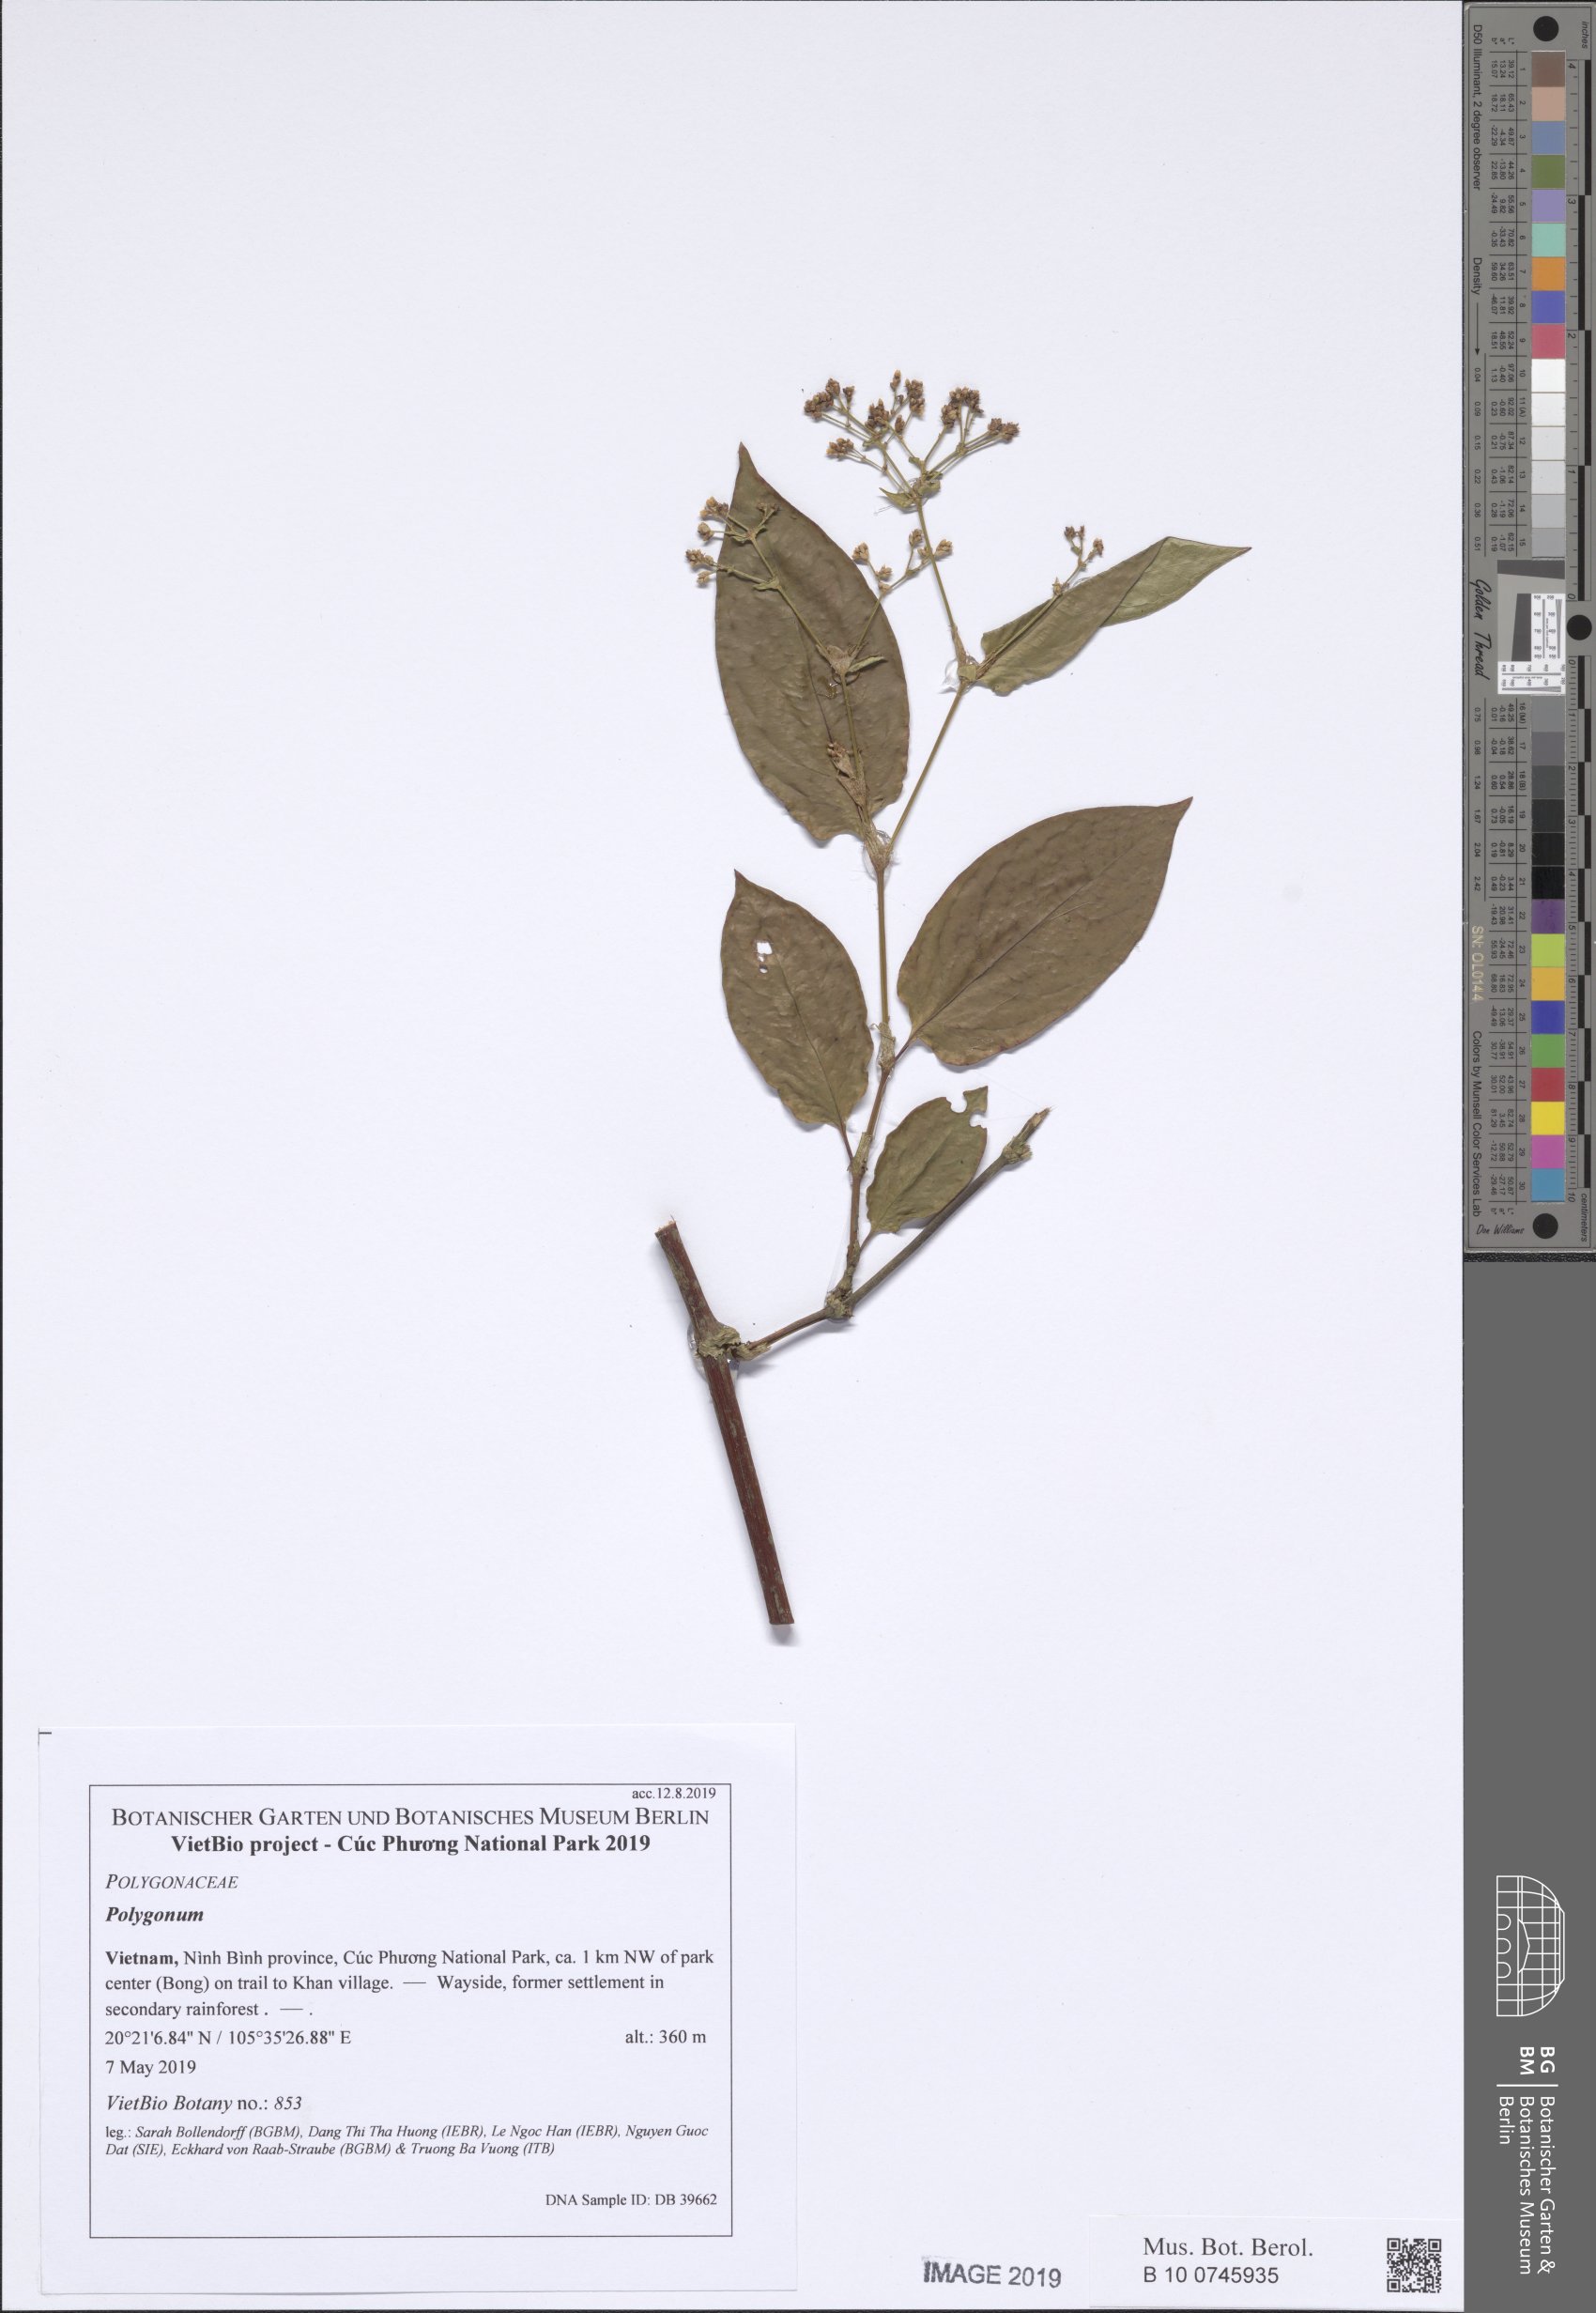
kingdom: Plantae
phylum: Tracheophyta
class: Magnoliopsida
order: Caryophyllales
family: Polygonaceae
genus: Persicaria
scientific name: Persicaria chinensis
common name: Chinese knotweed
